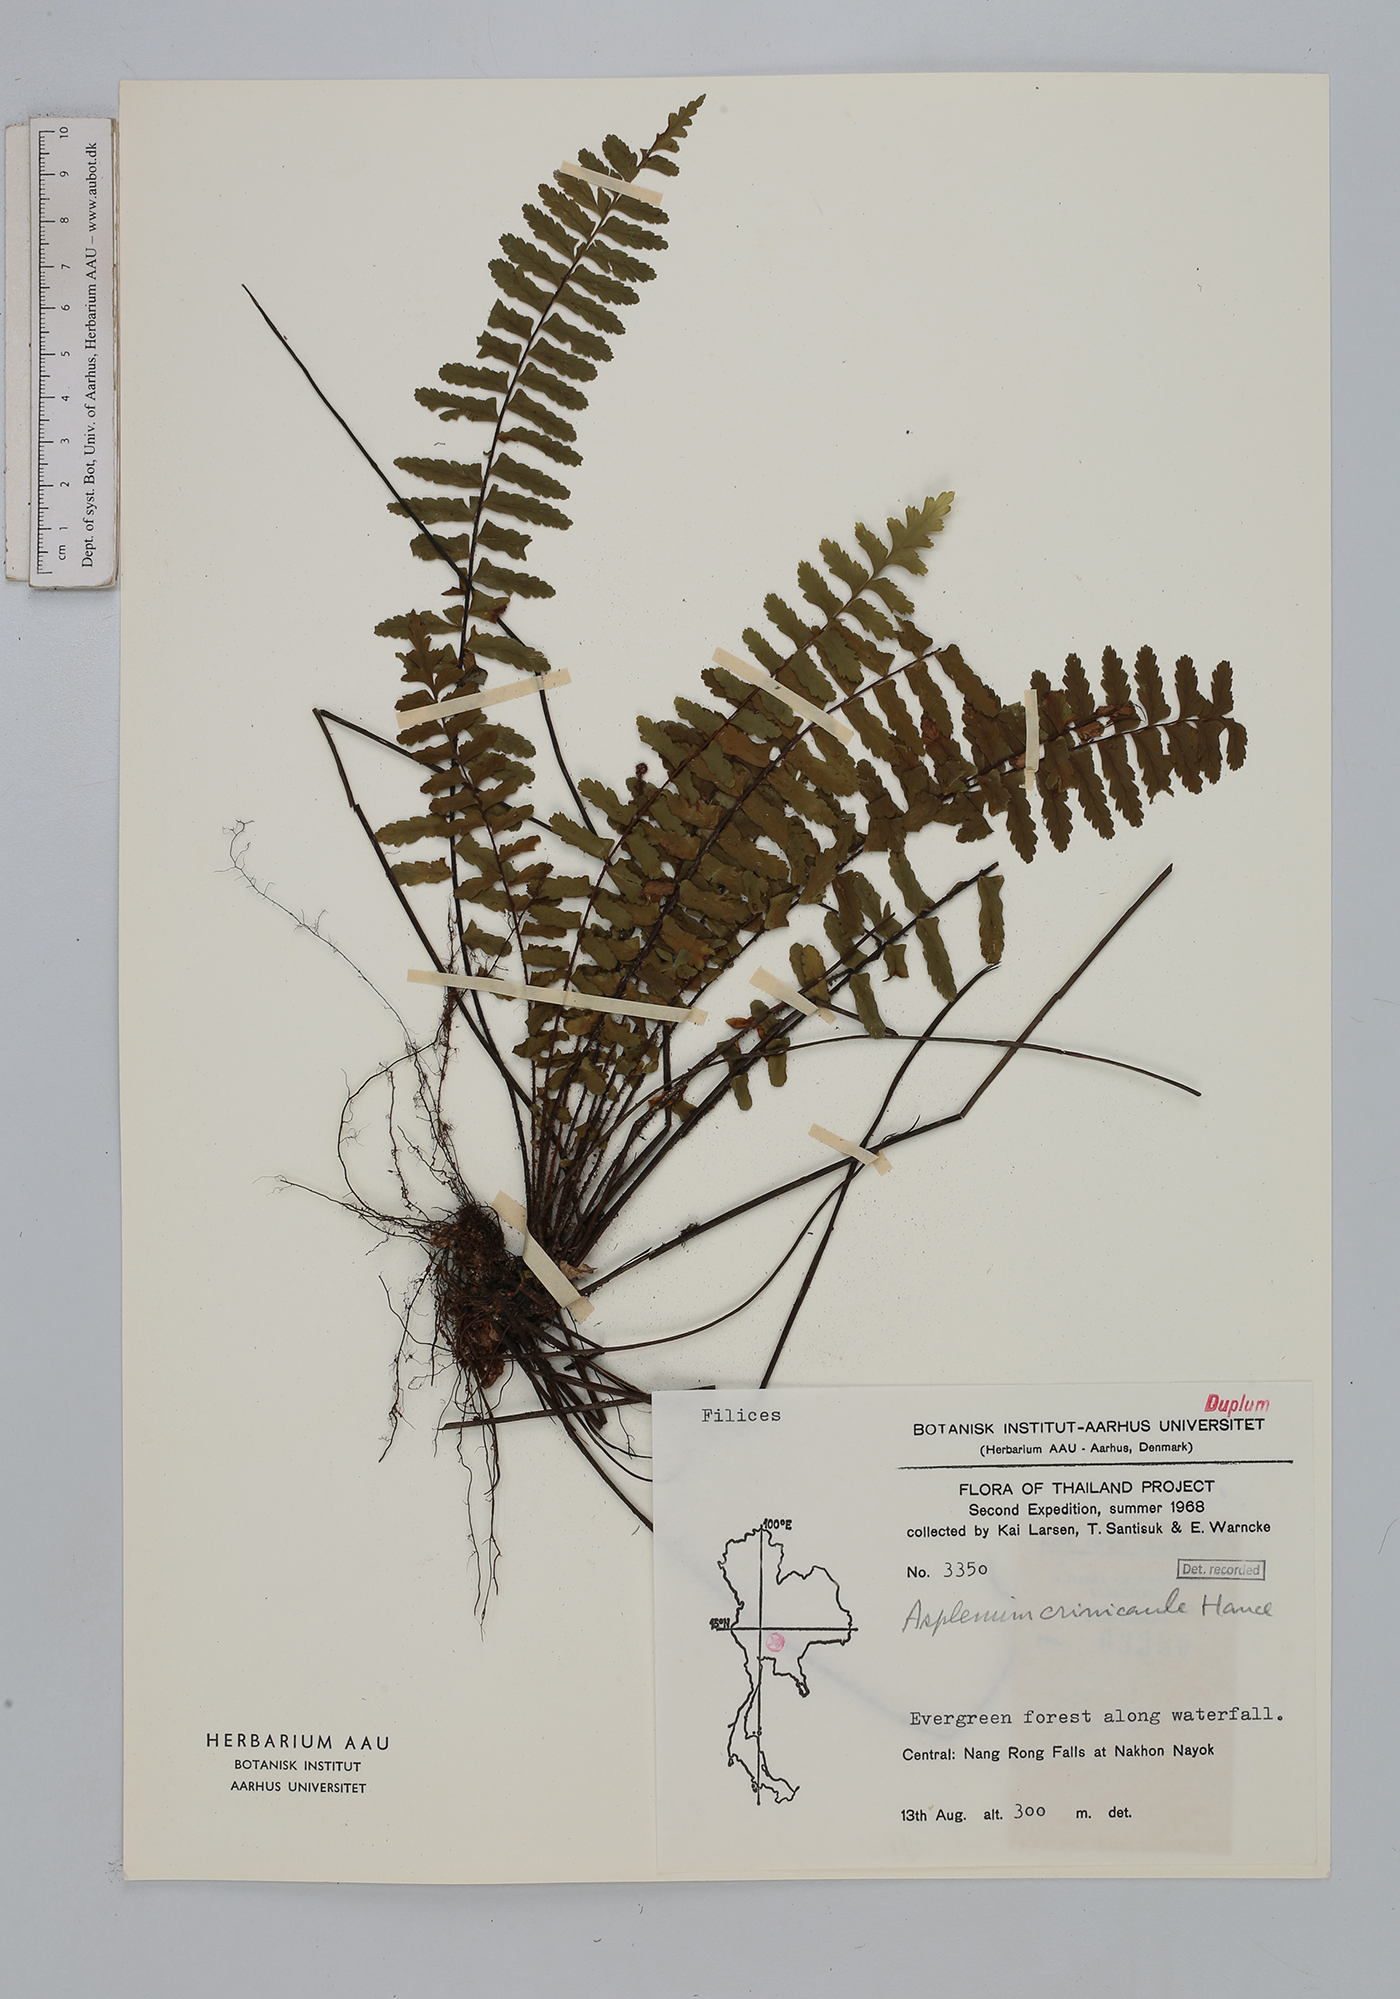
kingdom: Plantae
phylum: Tracheophyta
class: Polypodiopsida
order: Polypodiales
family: Aspleniaceae
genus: Asplenium
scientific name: Asplenium crinicaule
